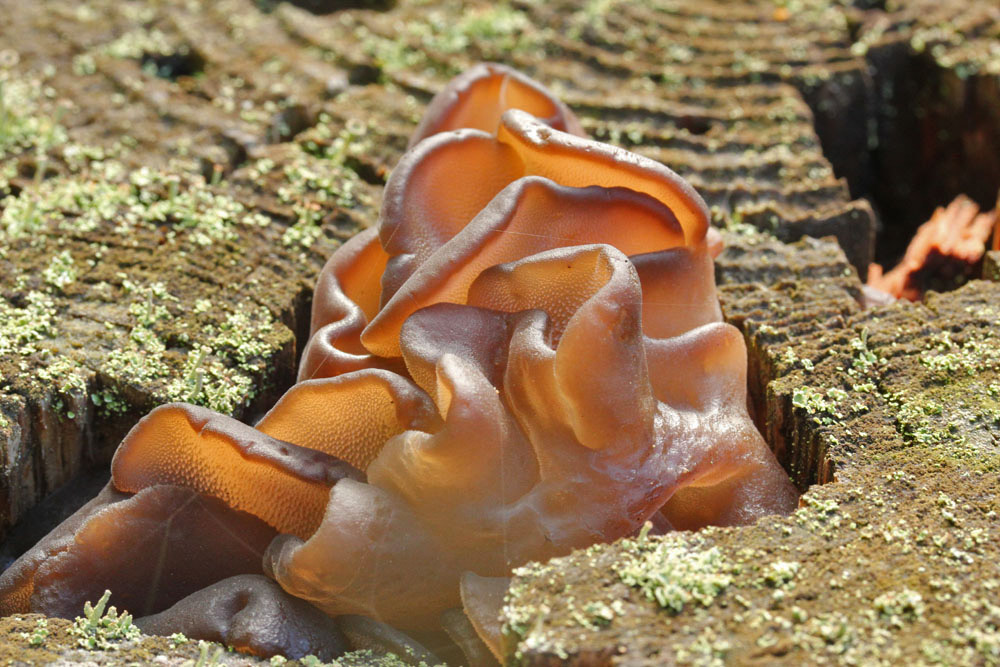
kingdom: Fungi
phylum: Basidiomycota
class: Agaricomycetes
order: Auriculariales
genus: Pseudohydnum
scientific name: Pseudohydnum gelatinosum
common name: bævretand
